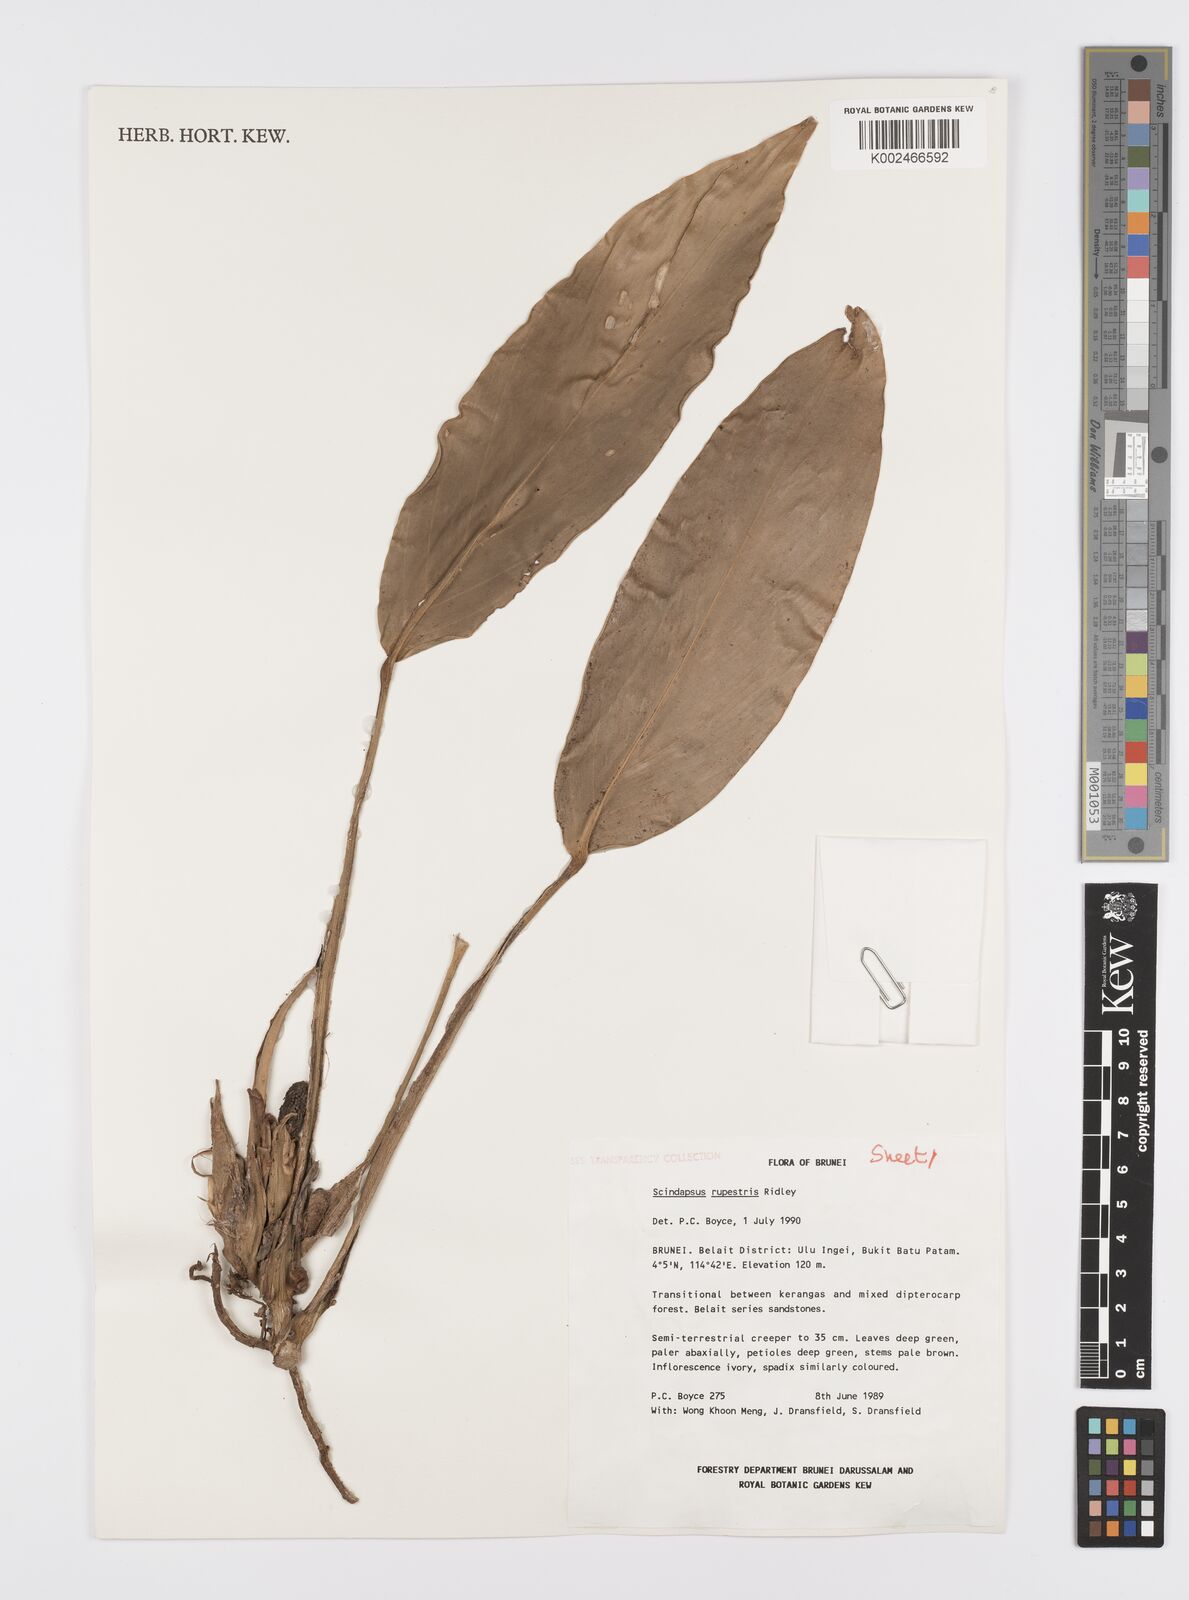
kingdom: Plantae
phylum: Tracheophyta
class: Liliopsida
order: Alismatales
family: Araceae
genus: Scindapsus
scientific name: Scindapsus sumatranus
